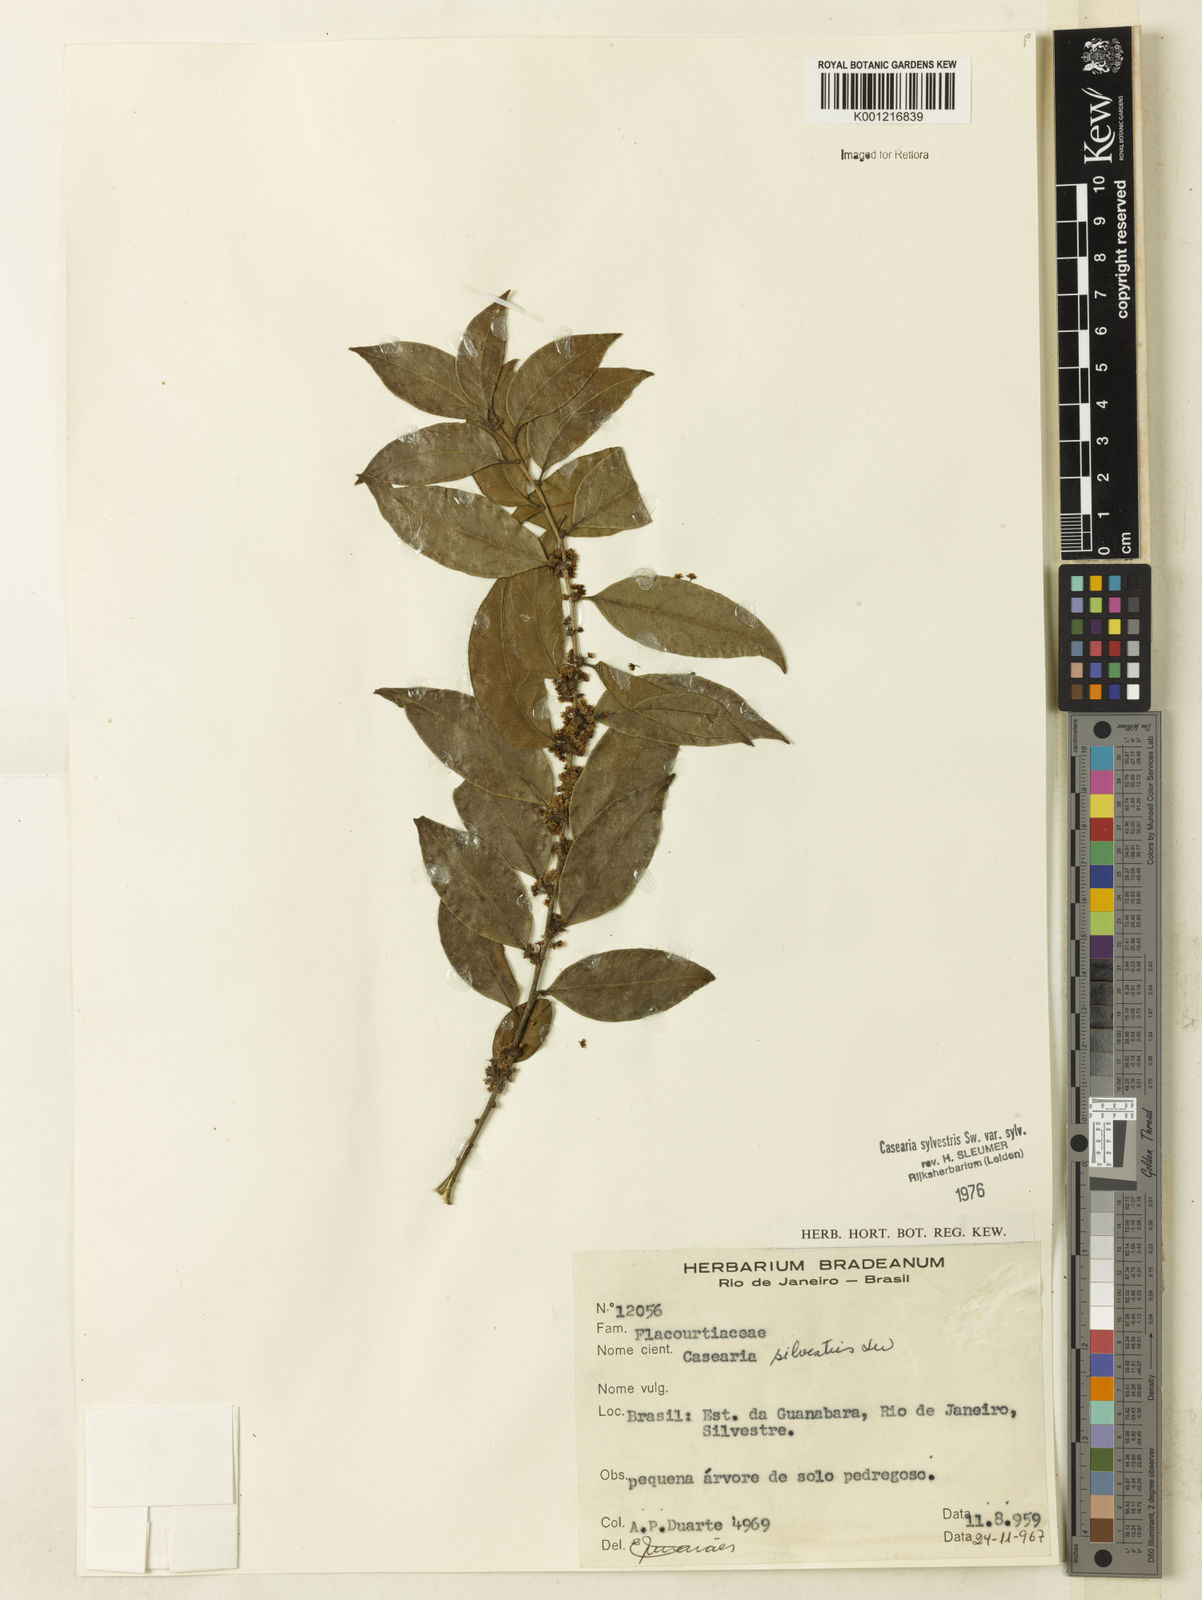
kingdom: Plantae
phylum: Tracheophyta
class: Magnoliopsida
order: Malpighiales
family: Salicaceae
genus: Casearia
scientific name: Casearia sylvestris
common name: Wild sage
